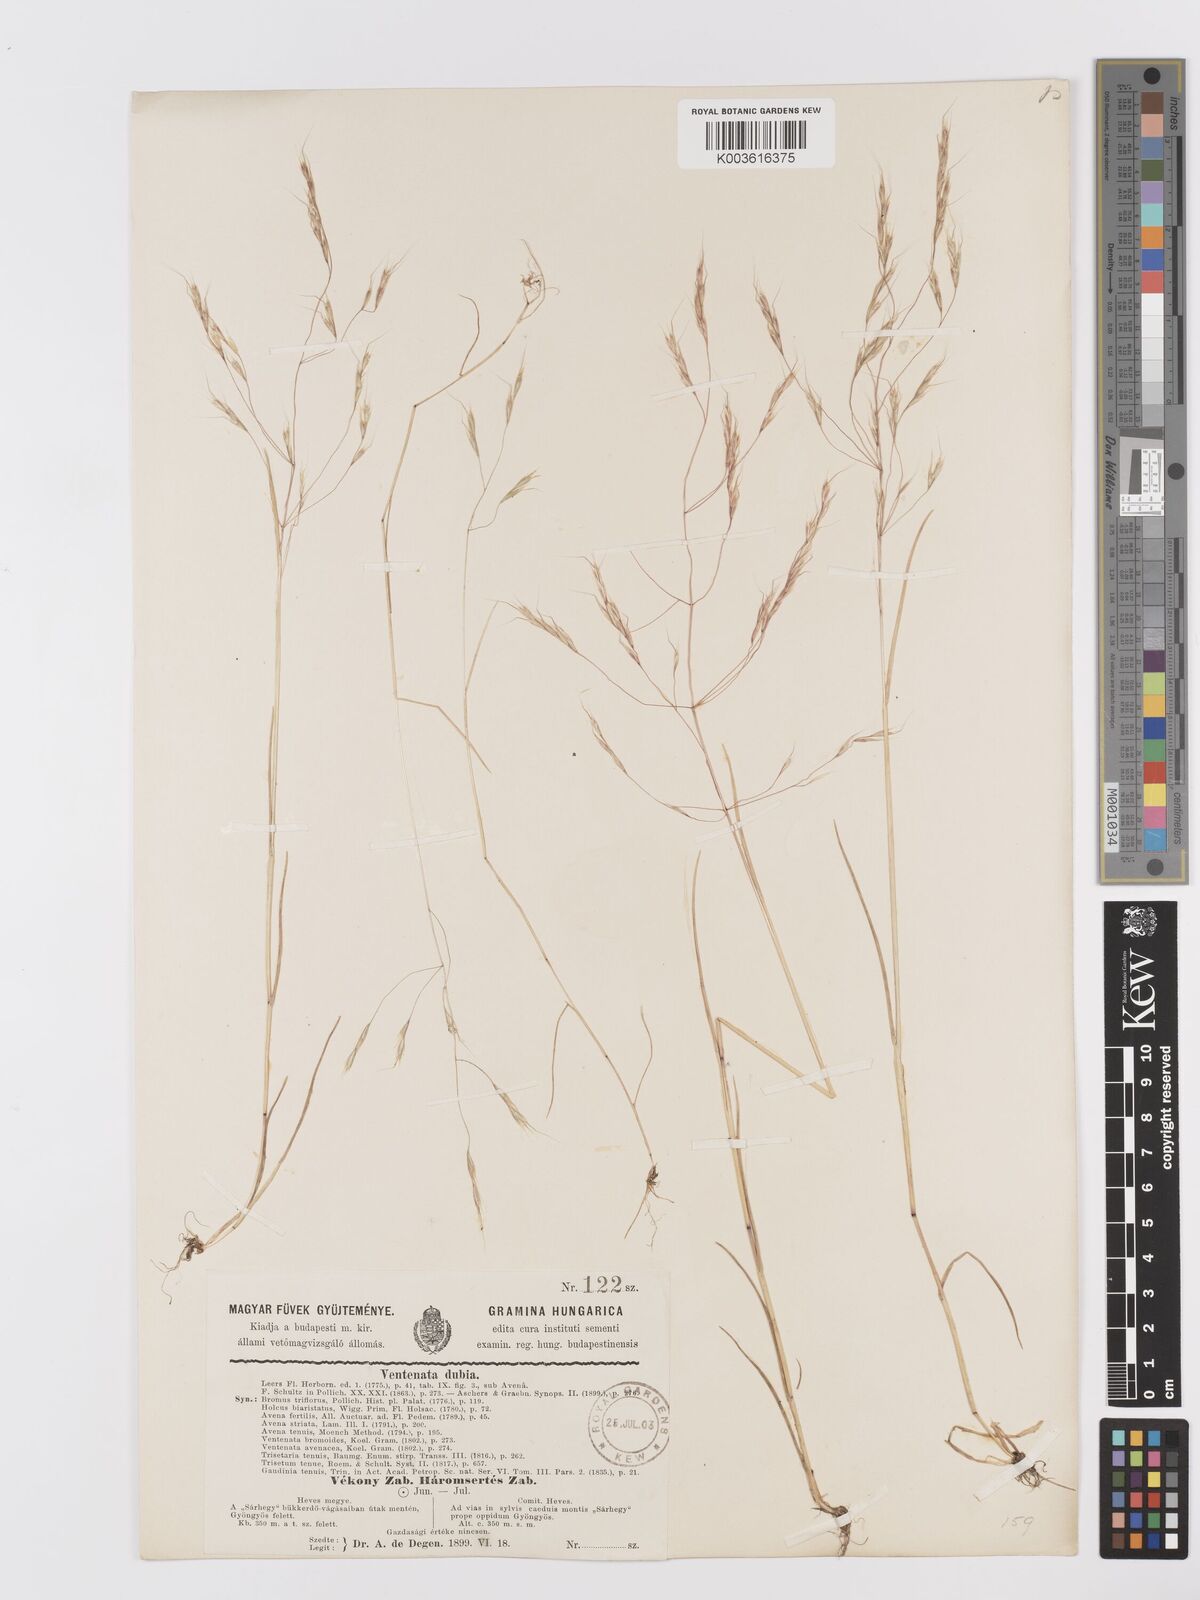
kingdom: Plantae
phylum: Tracheophyta
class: Liliopsida
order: Poales
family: Poaceae
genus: Ventenata
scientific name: Ventenata dubia
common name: North africa grass
